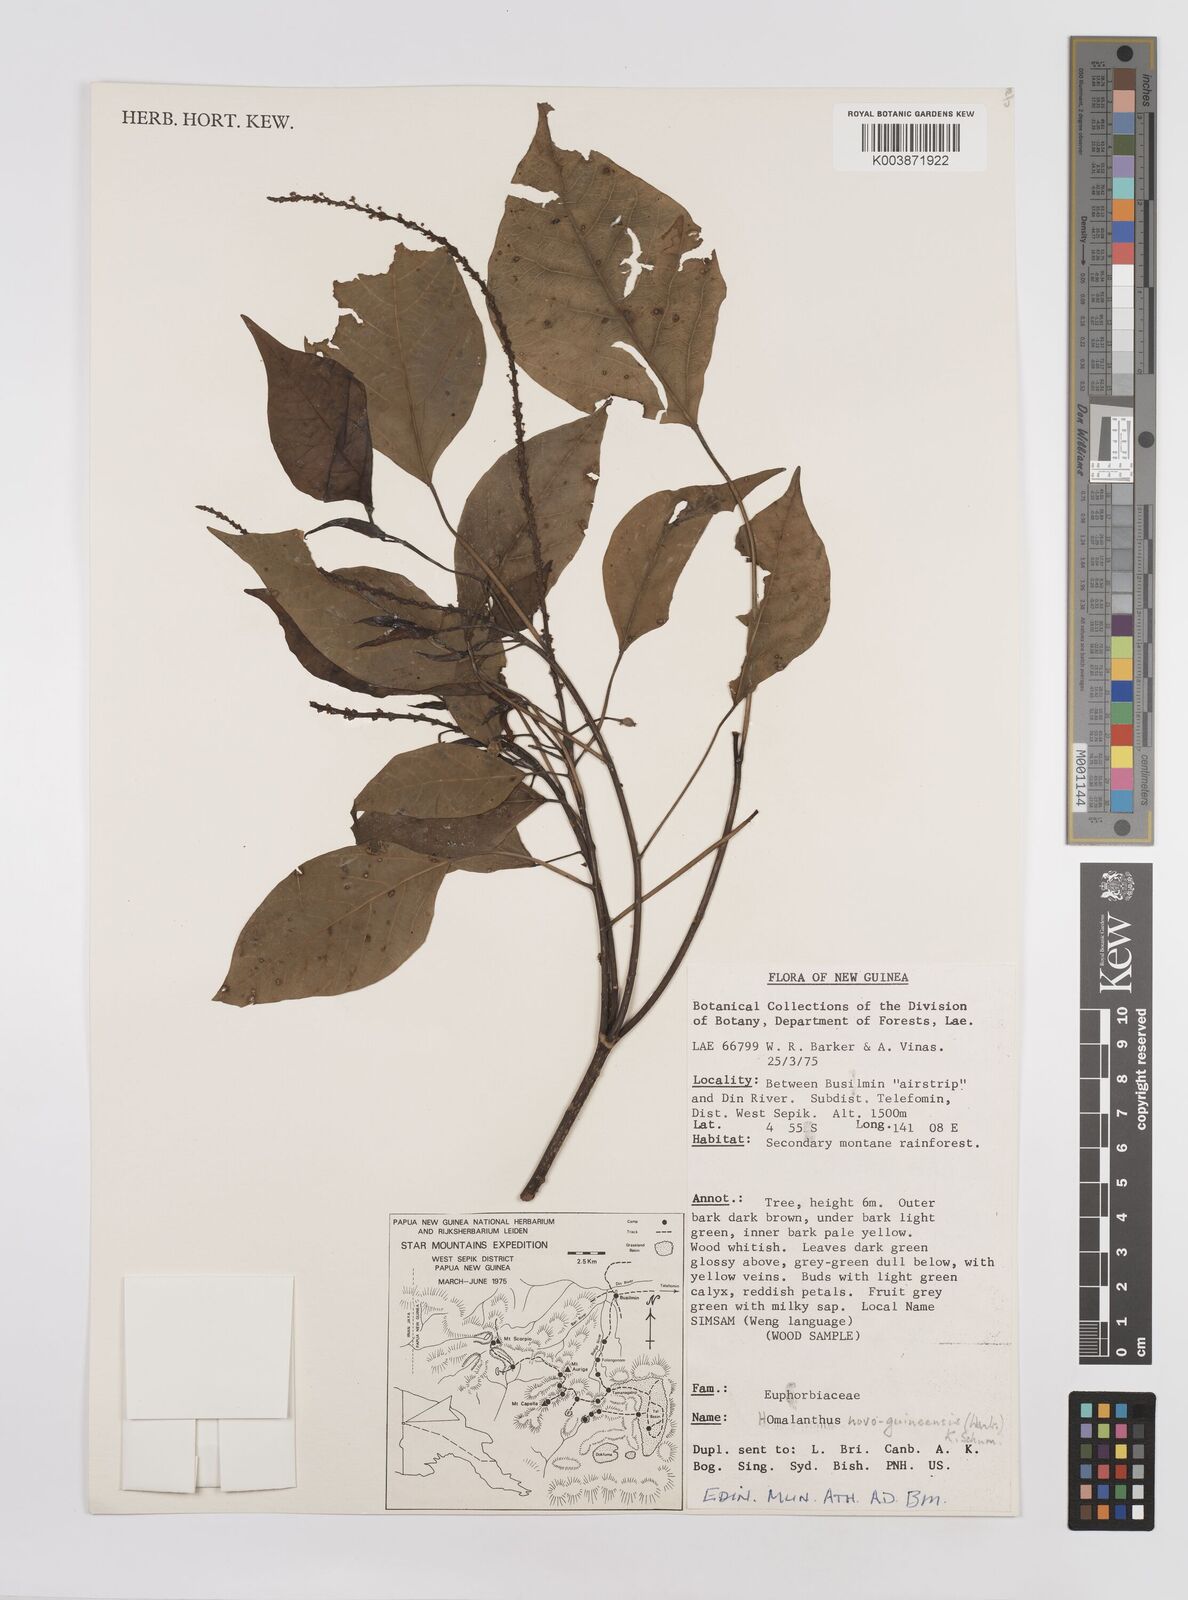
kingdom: Plantae
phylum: Tracheophyta
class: Magnoliopsida
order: Malpighiales
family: Euphorbiaceae
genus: Homalanthus
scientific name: Homalanthus novoguineensis
